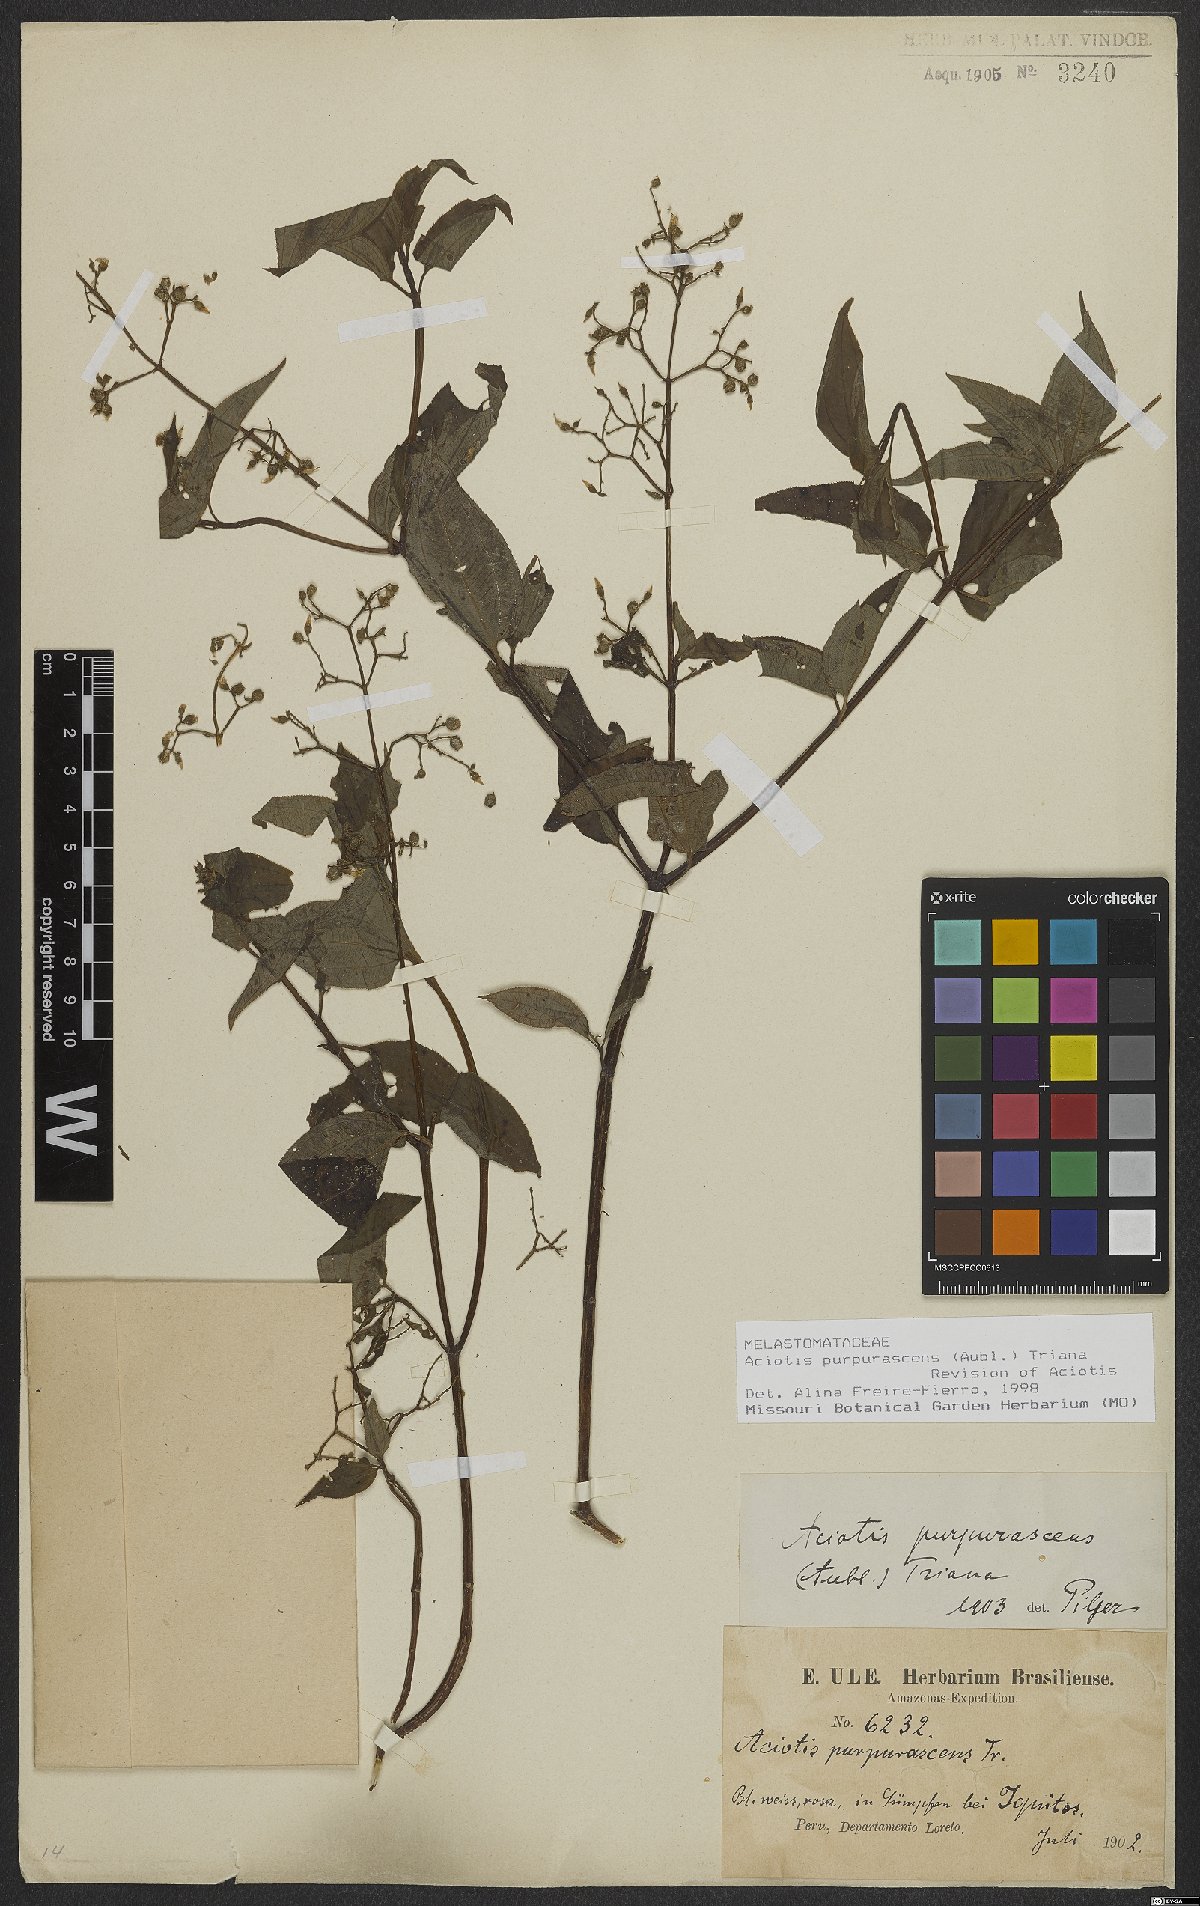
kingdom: Plantae
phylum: Tracheophyta
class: Magnoliopsida
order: Myrtales
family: Melastomataceae
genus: Aciotis
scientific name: Aciotis purpurascens
